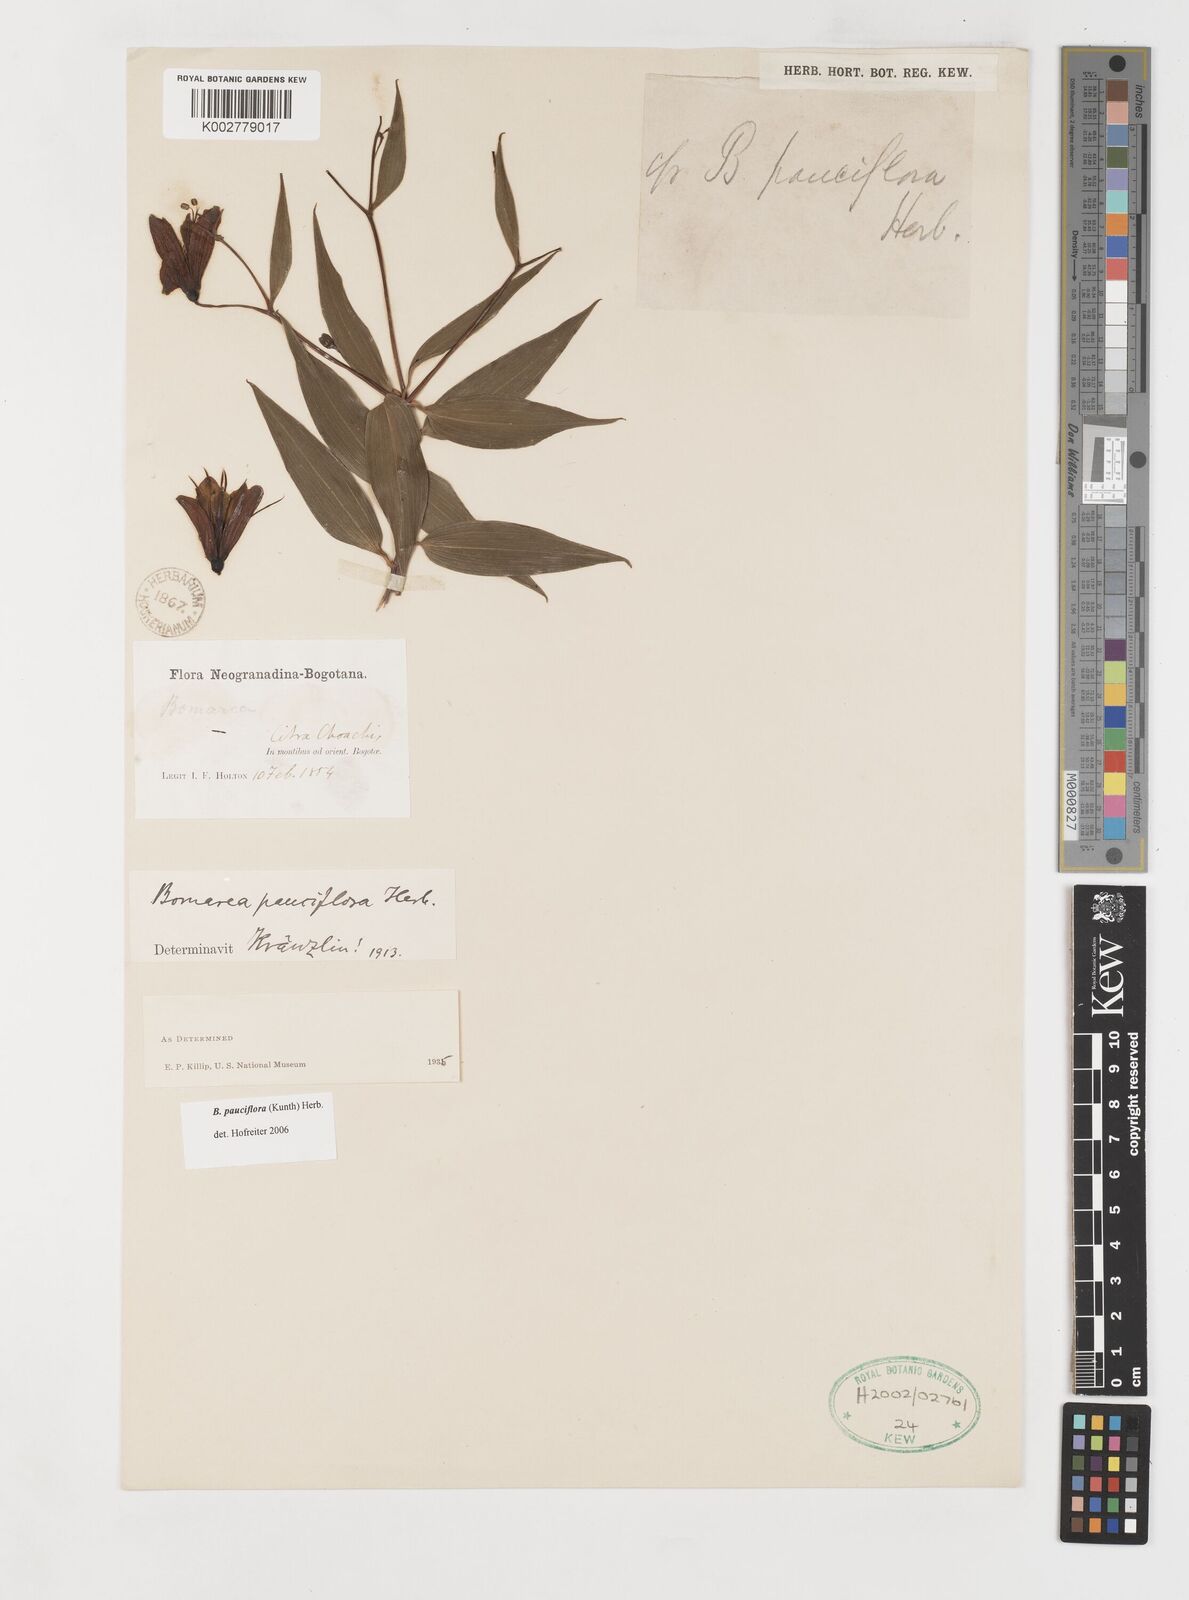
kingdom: Plantae
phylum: Tracheophyta
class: Liliopsida
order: Liliales
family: Alstroemeriaceae
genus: Bomarea
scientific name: Bomarea pauciflora
